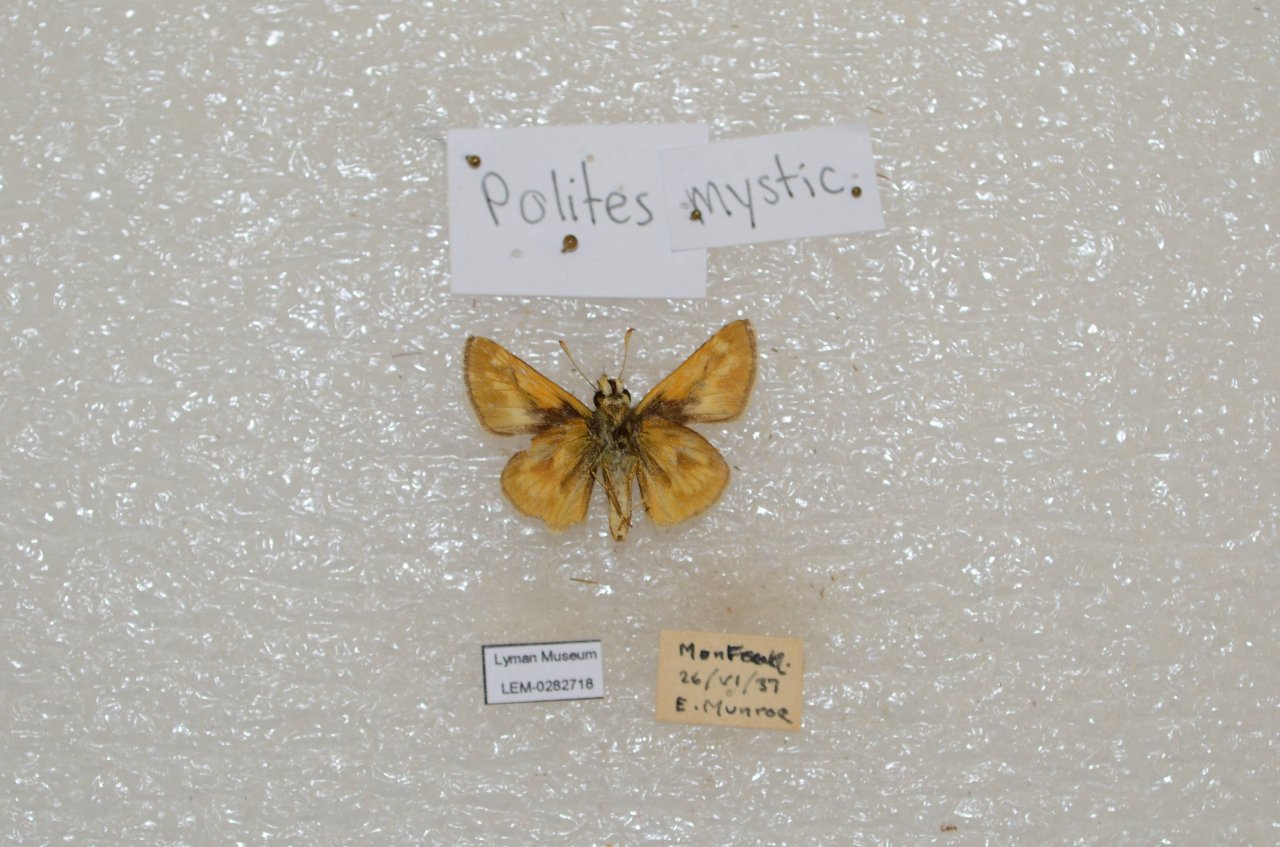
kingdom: Animalia
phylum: Arthropoda
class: Insecta
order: Lepidoptera
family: Hesperiidae
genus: Polites
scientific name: Polites
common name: Long Dash Skipper
